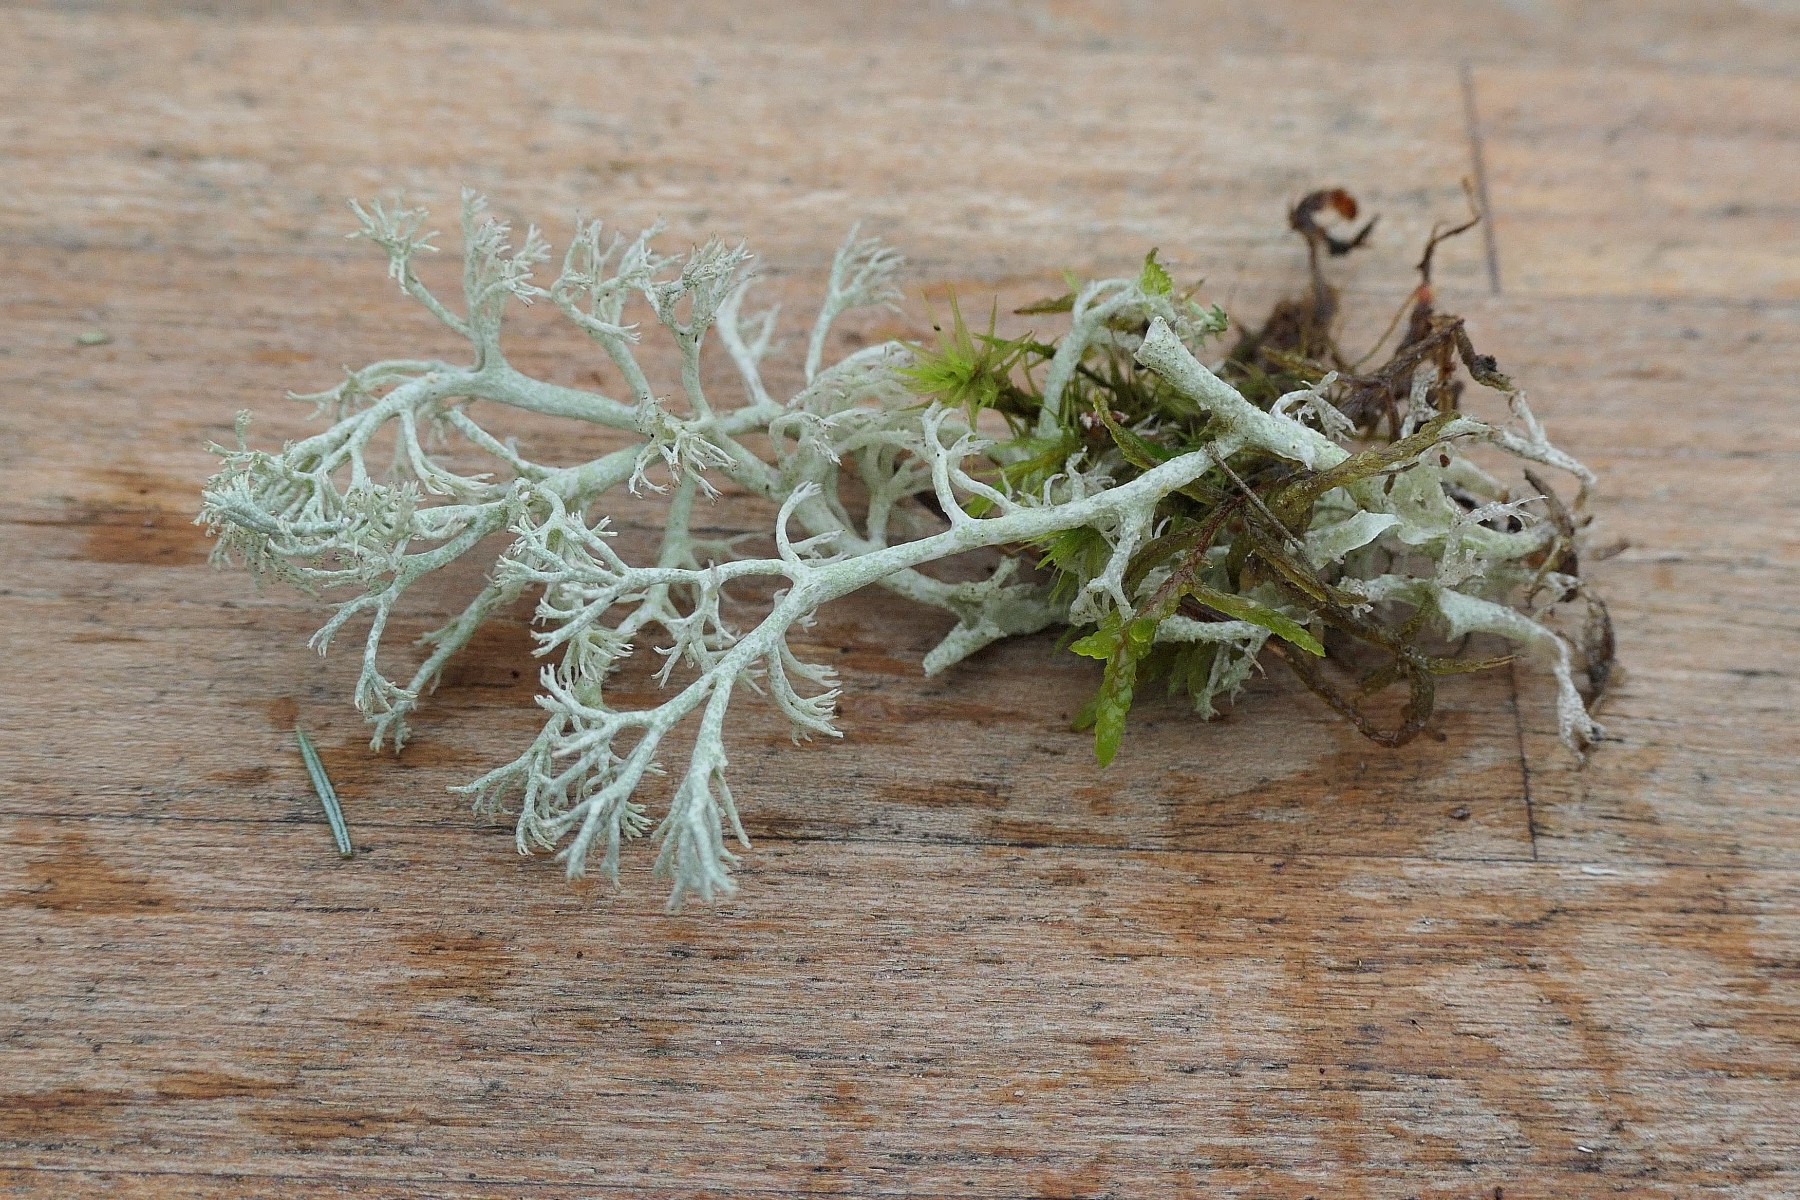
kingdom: Fungi
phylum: Ascomycota
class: Lecanoromycetes
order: Lecanorales
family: Cladoniaceae
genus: Cladonia
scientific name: Cladonia arbuscula
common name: gulhvid rensdyrlav
